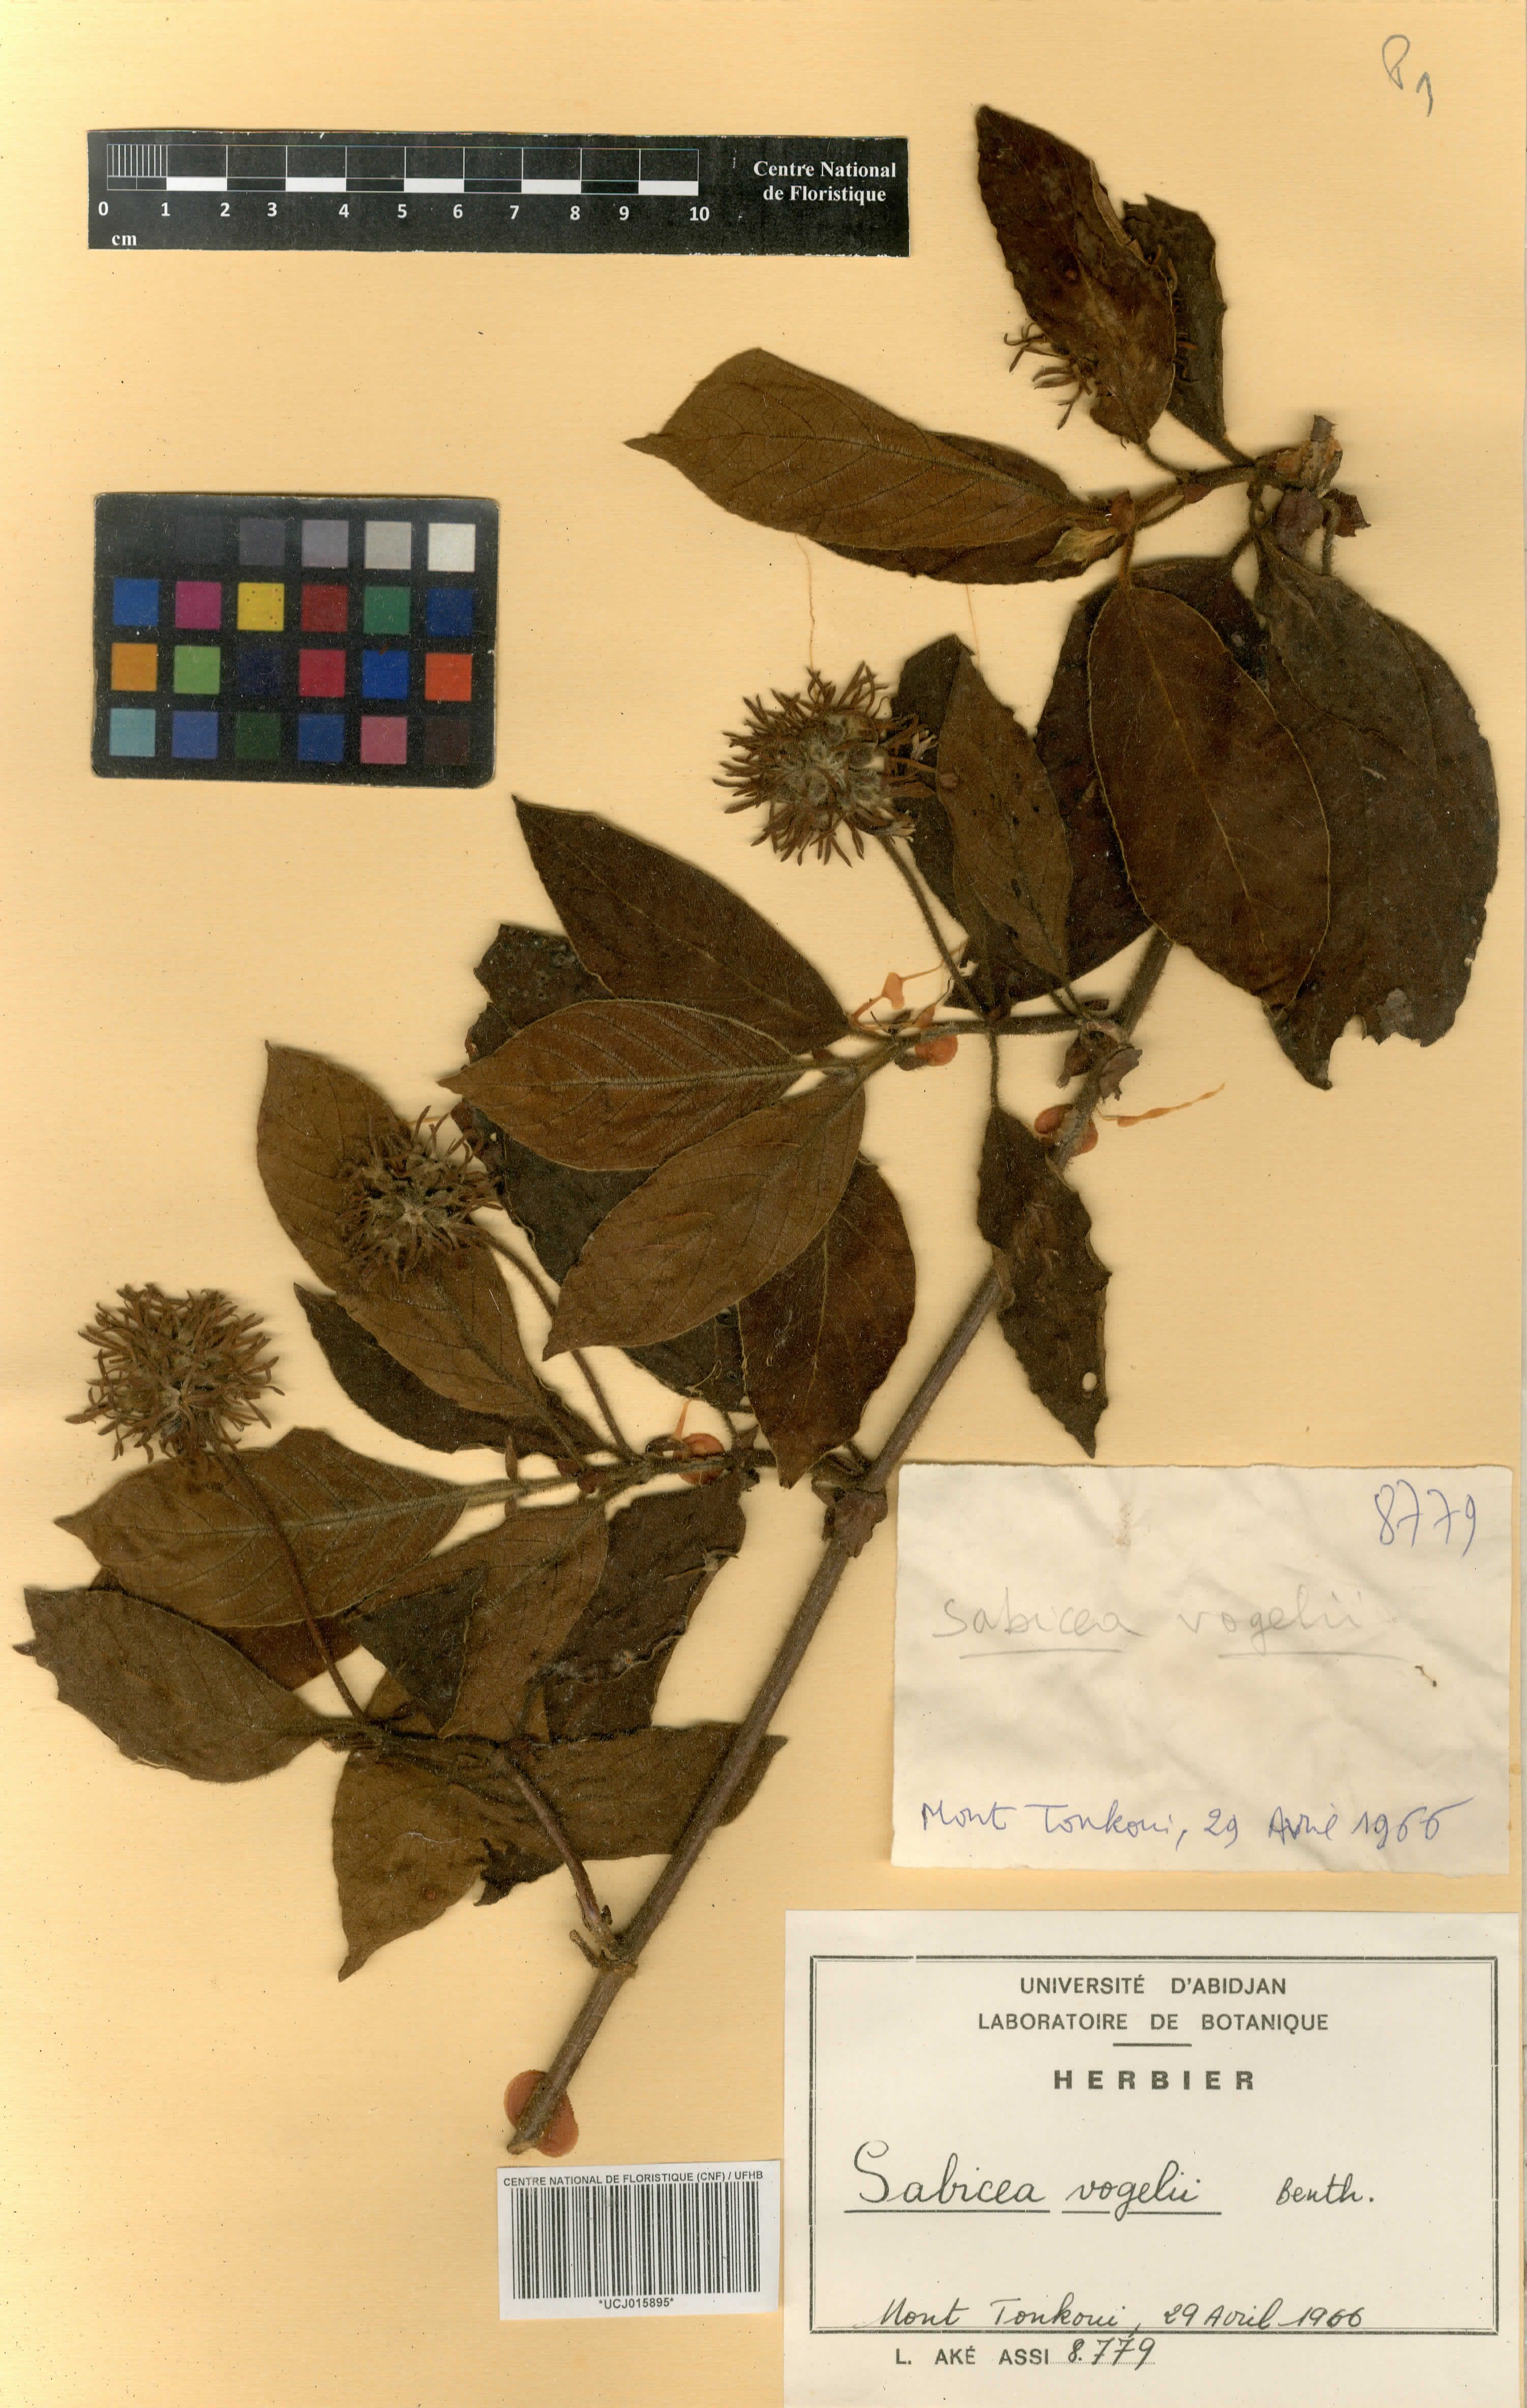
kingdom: Plantae
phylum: Tracheophyta
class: Magnoliopsida
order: Gentianales
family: Rubiaceae
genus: Sabicea
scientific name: Sabicea vogelii
